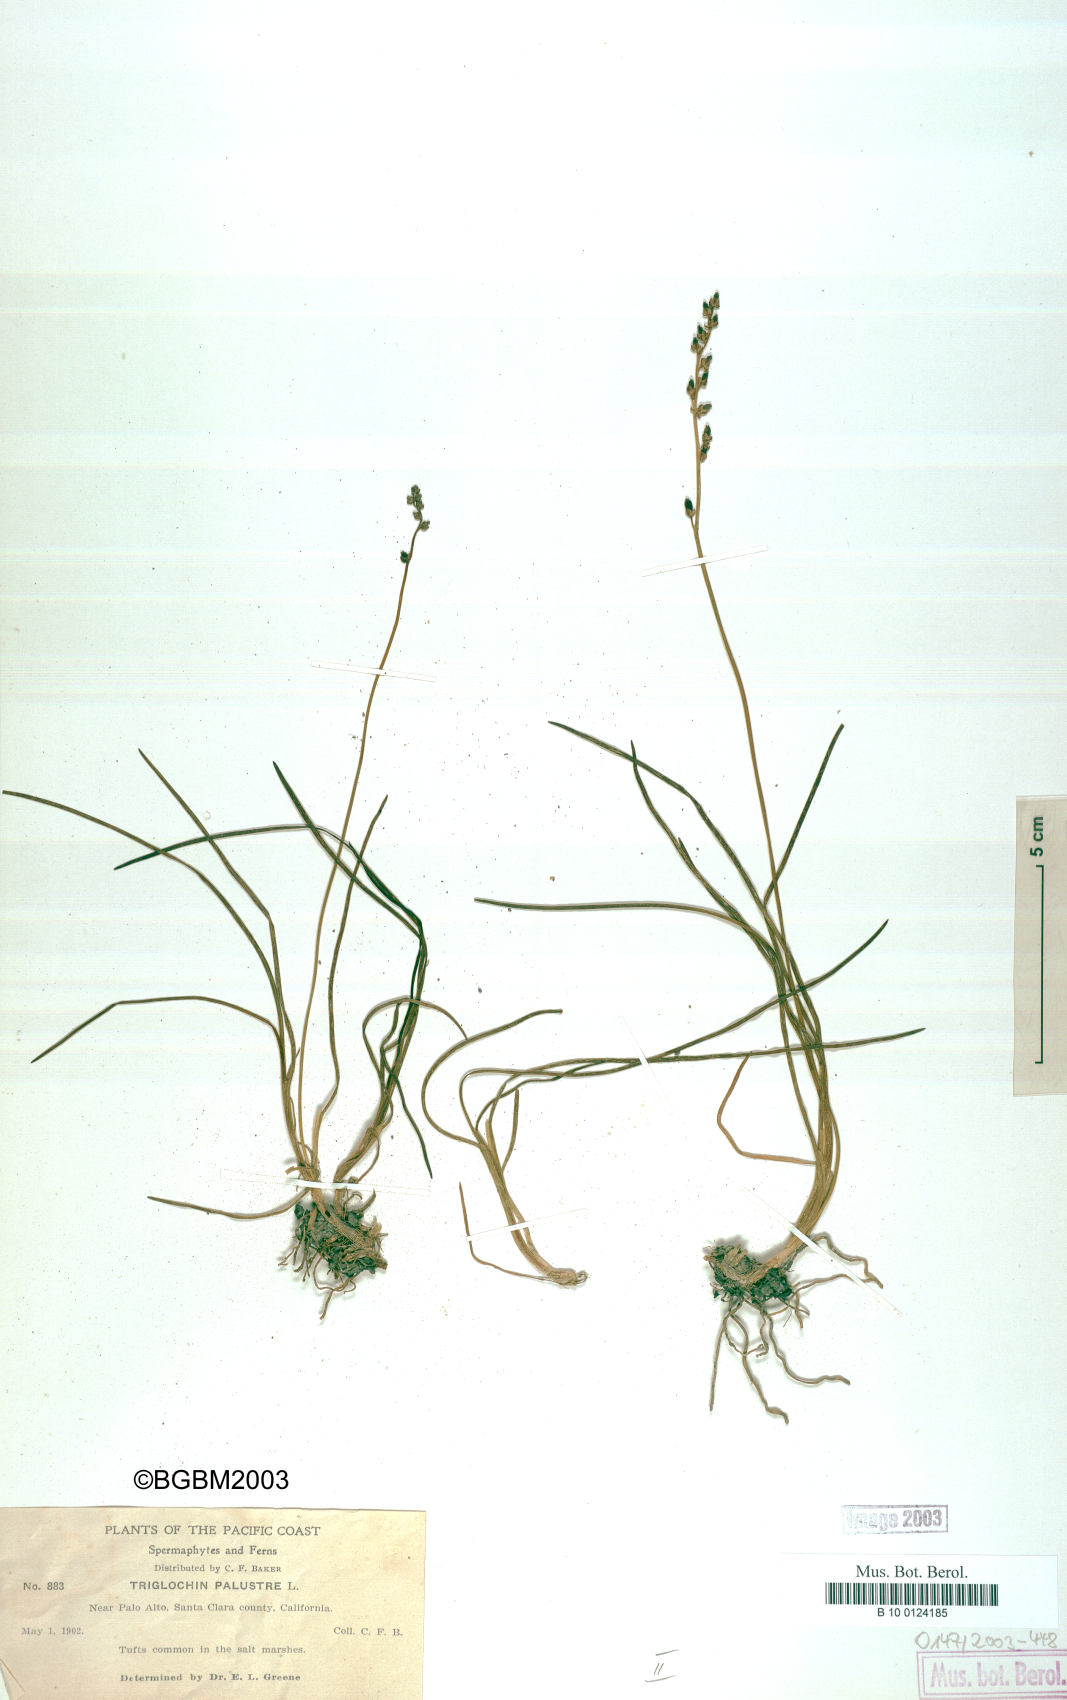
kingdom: Plantae
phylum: Tracheophyta
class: Liliopsida
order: Alismatales
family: Juncaginaceae
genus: Triglochin
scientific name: Triglochin maritima
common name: Sea arrowgrass
